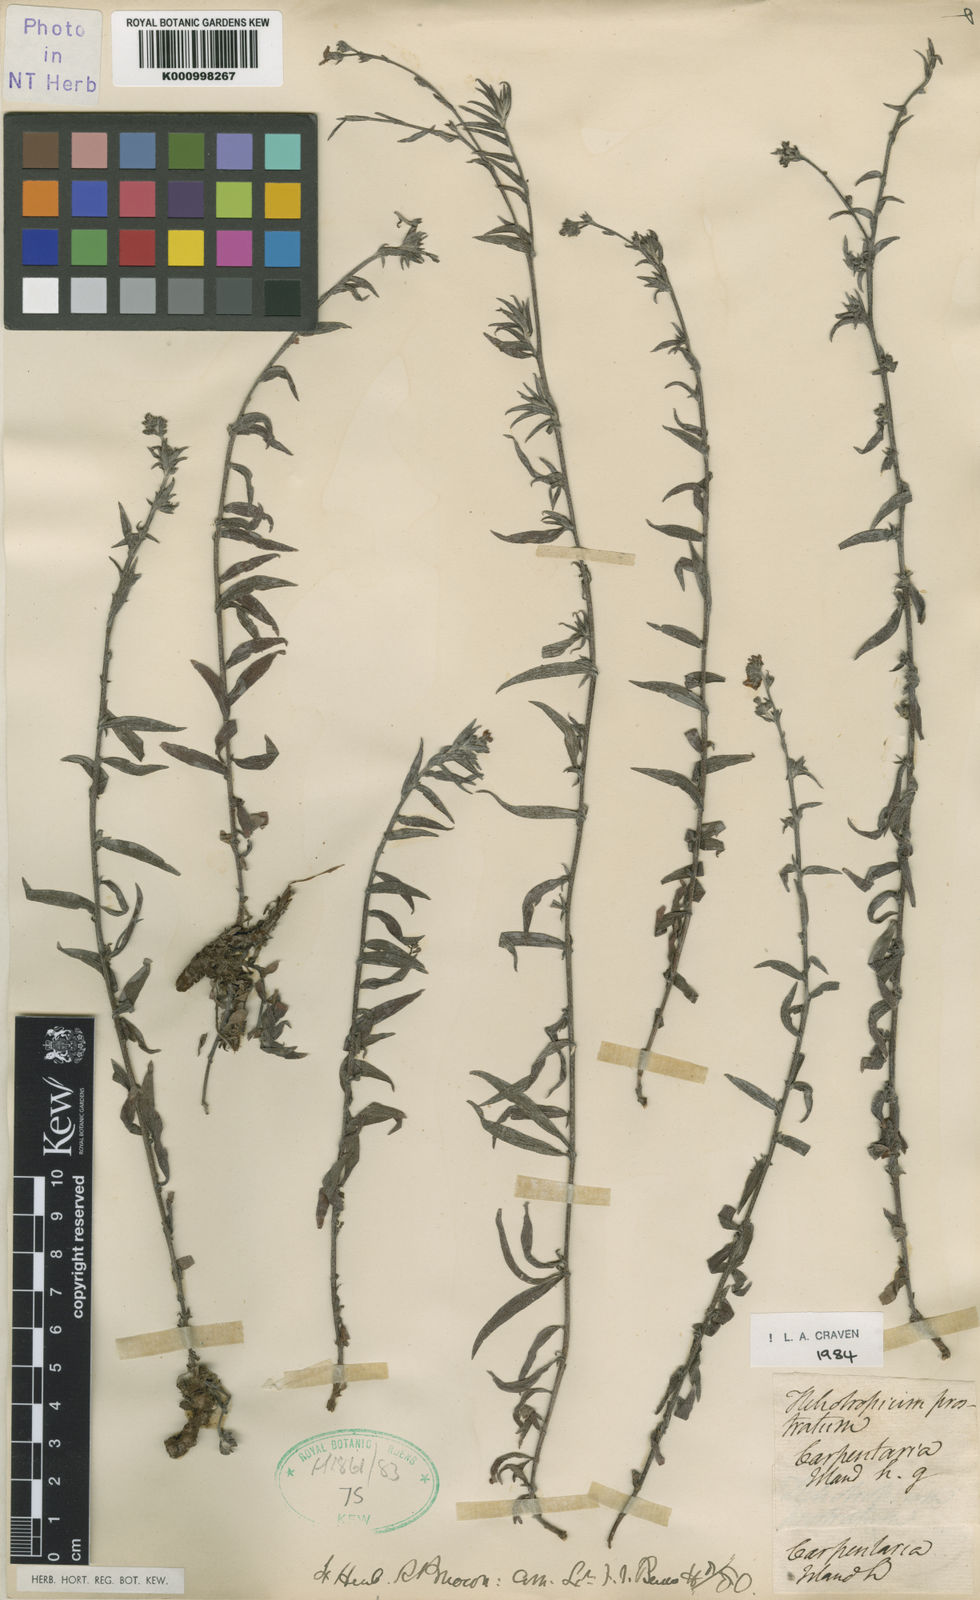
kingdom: Plantae
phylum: Tracheophyta
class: Magnoliopsida
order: Boraginales
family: Heliotropiaceae
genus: Euploca
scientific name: Euploca prostrata
